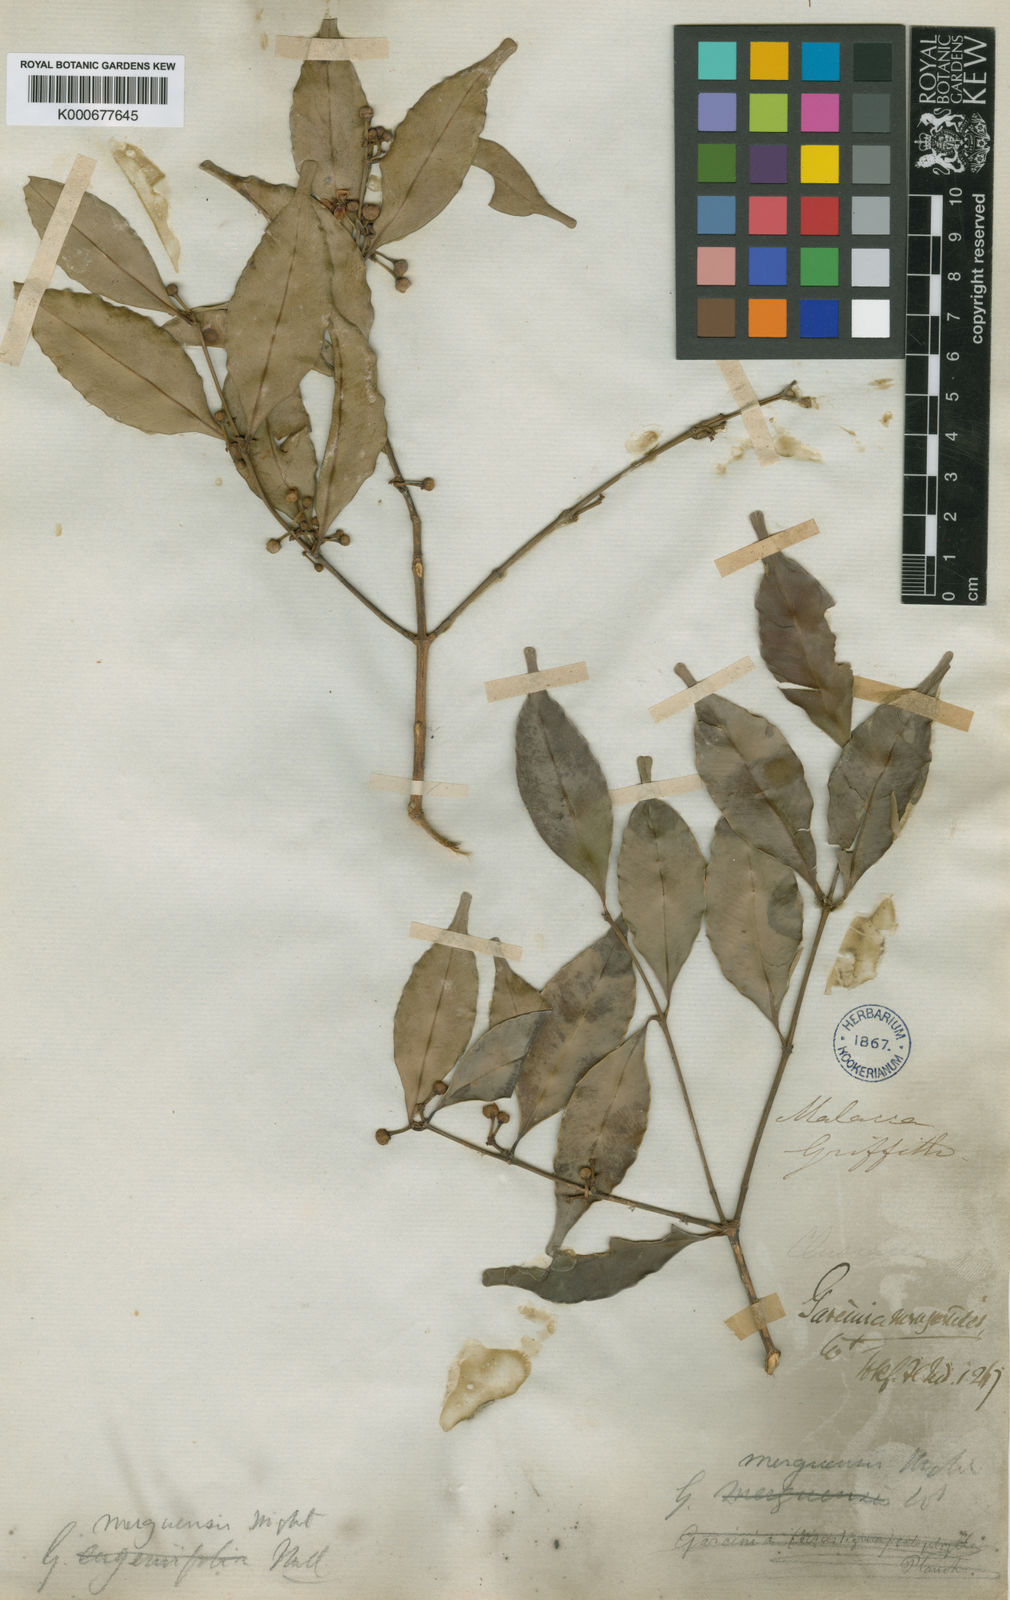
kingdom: Plantae
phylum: Tracheophyta
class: Magnoliopsida
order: Malpighiales
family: Clusiaceae
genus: Garcinia
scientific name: Garcinia merguensis
